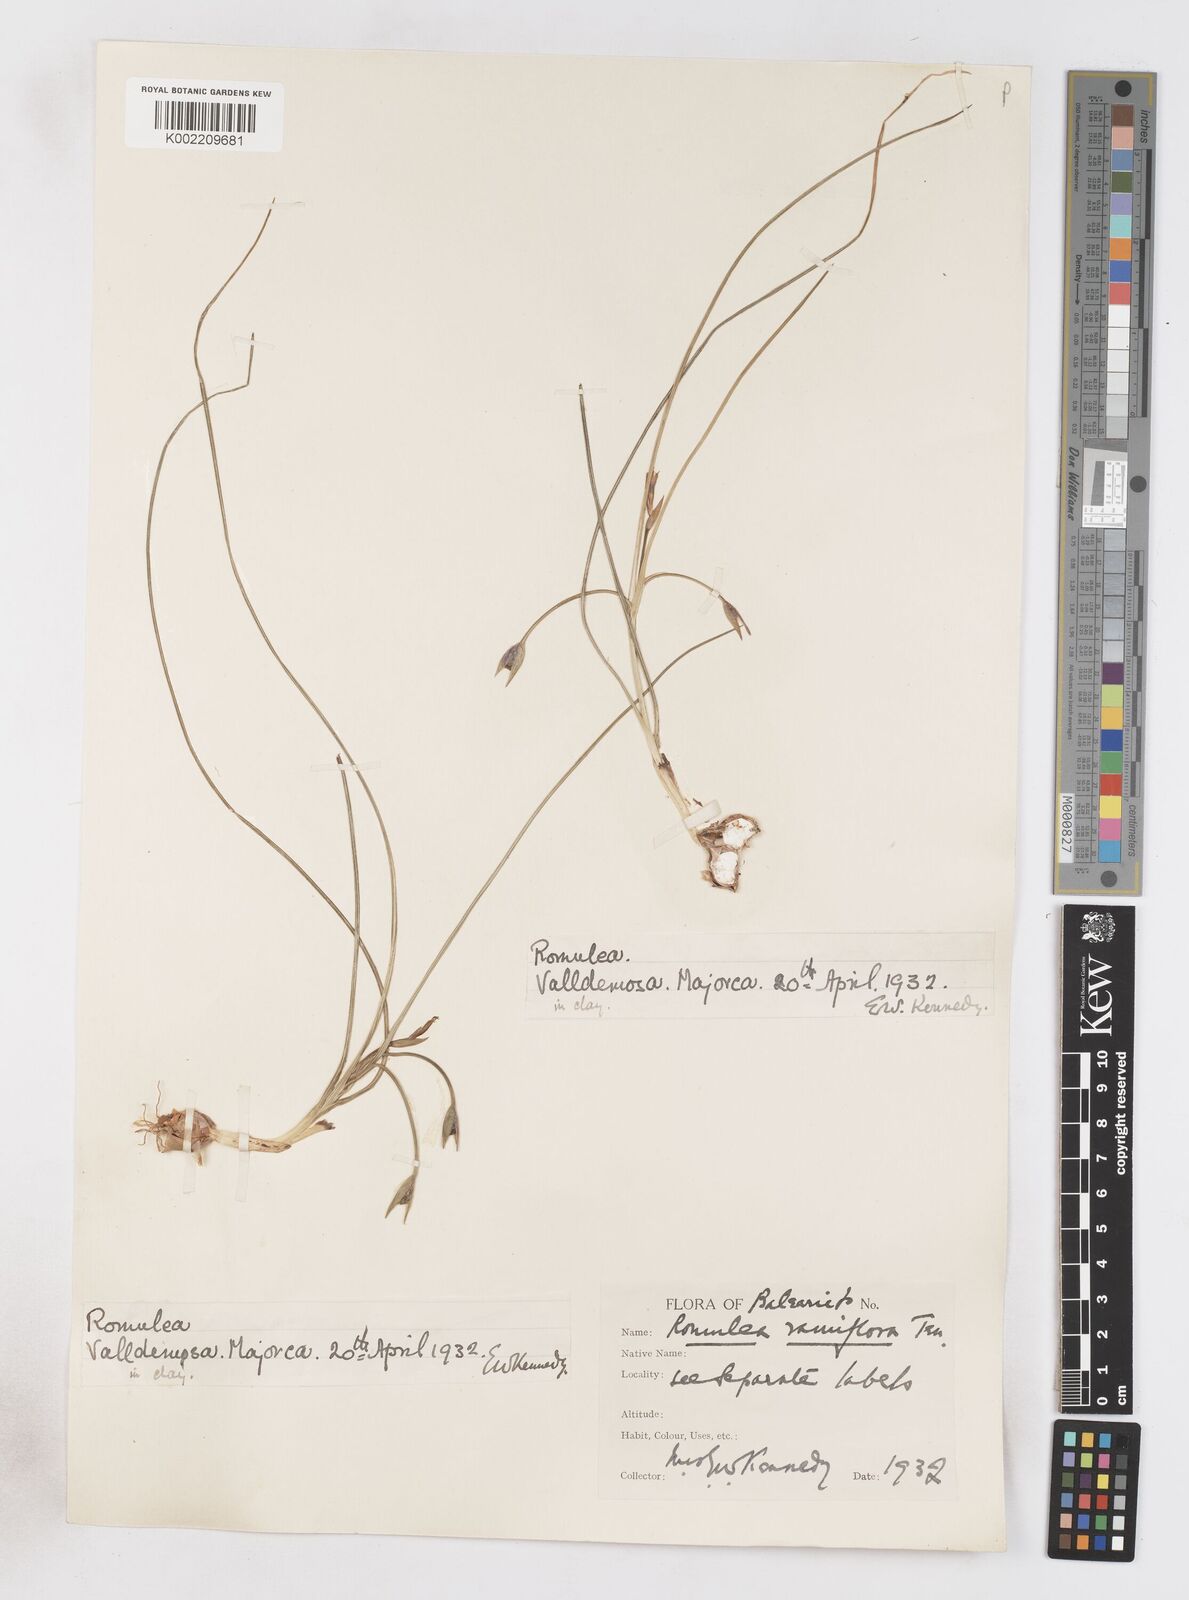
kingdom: Plantae
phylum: Tracheophyta
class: Liliopsida
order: Asparagales
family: Iridaceae
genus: Romulea
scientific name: Romulea ramiflora
